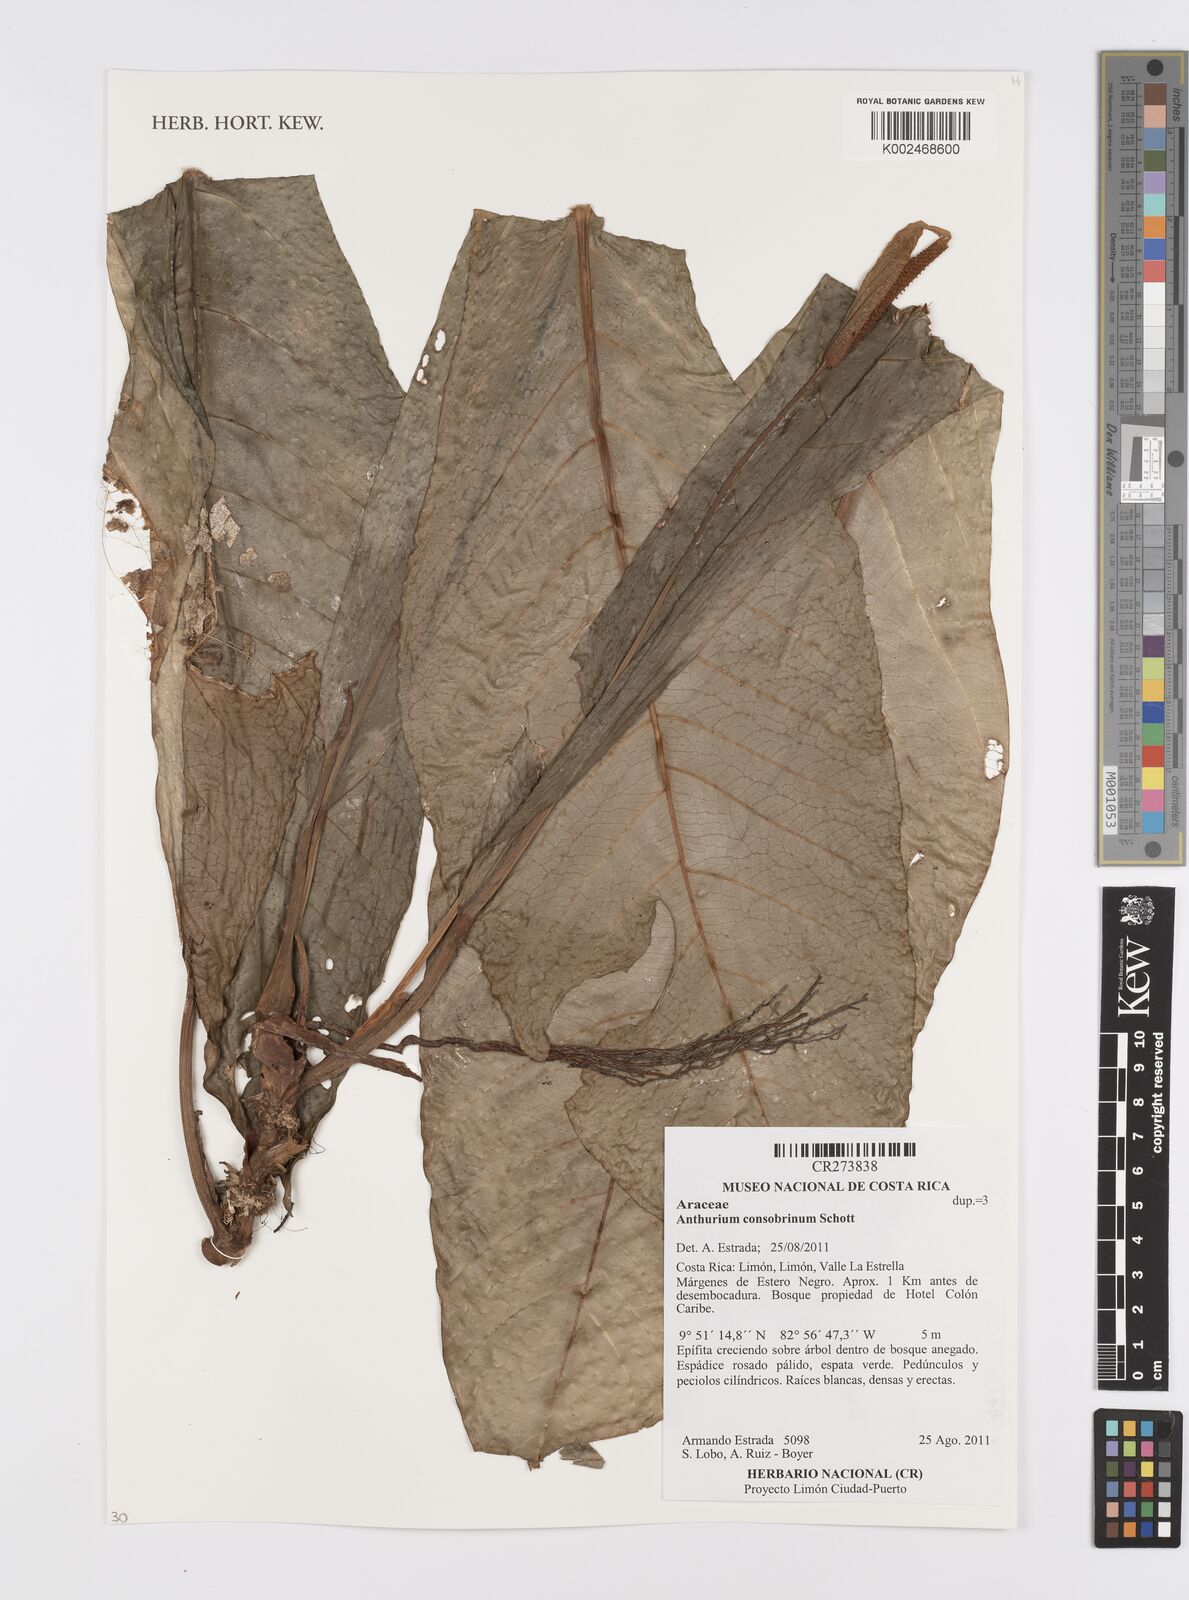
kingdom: Plantae
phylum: Tracheophyta
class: Liliopsida
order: Alismatales
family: Araceae
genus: Anthurium
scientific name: Anthurium consobrinum
